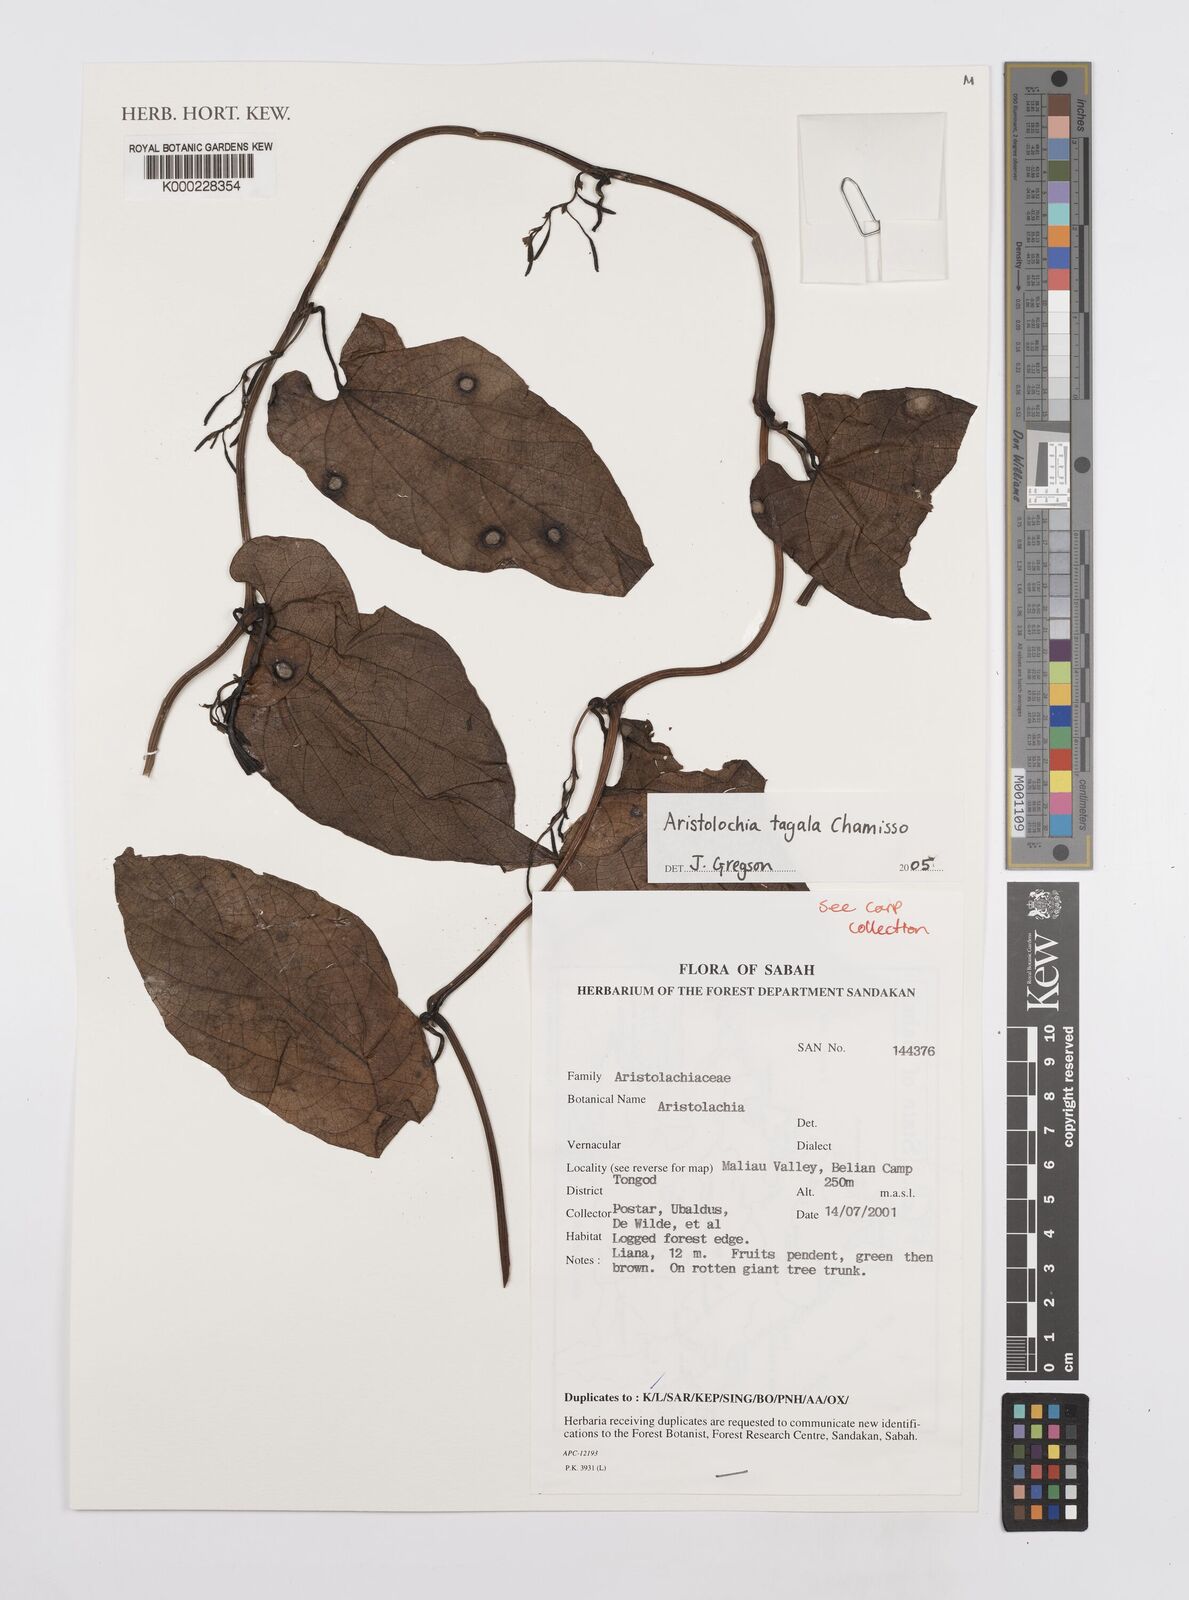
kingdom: Plantae
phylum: Tracheophyta
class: Magnoliopsida
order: Piperales
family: Aristolochiaceae
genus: Aristolochia
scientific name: Aristolochia acuminata
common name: Indian birthwort
